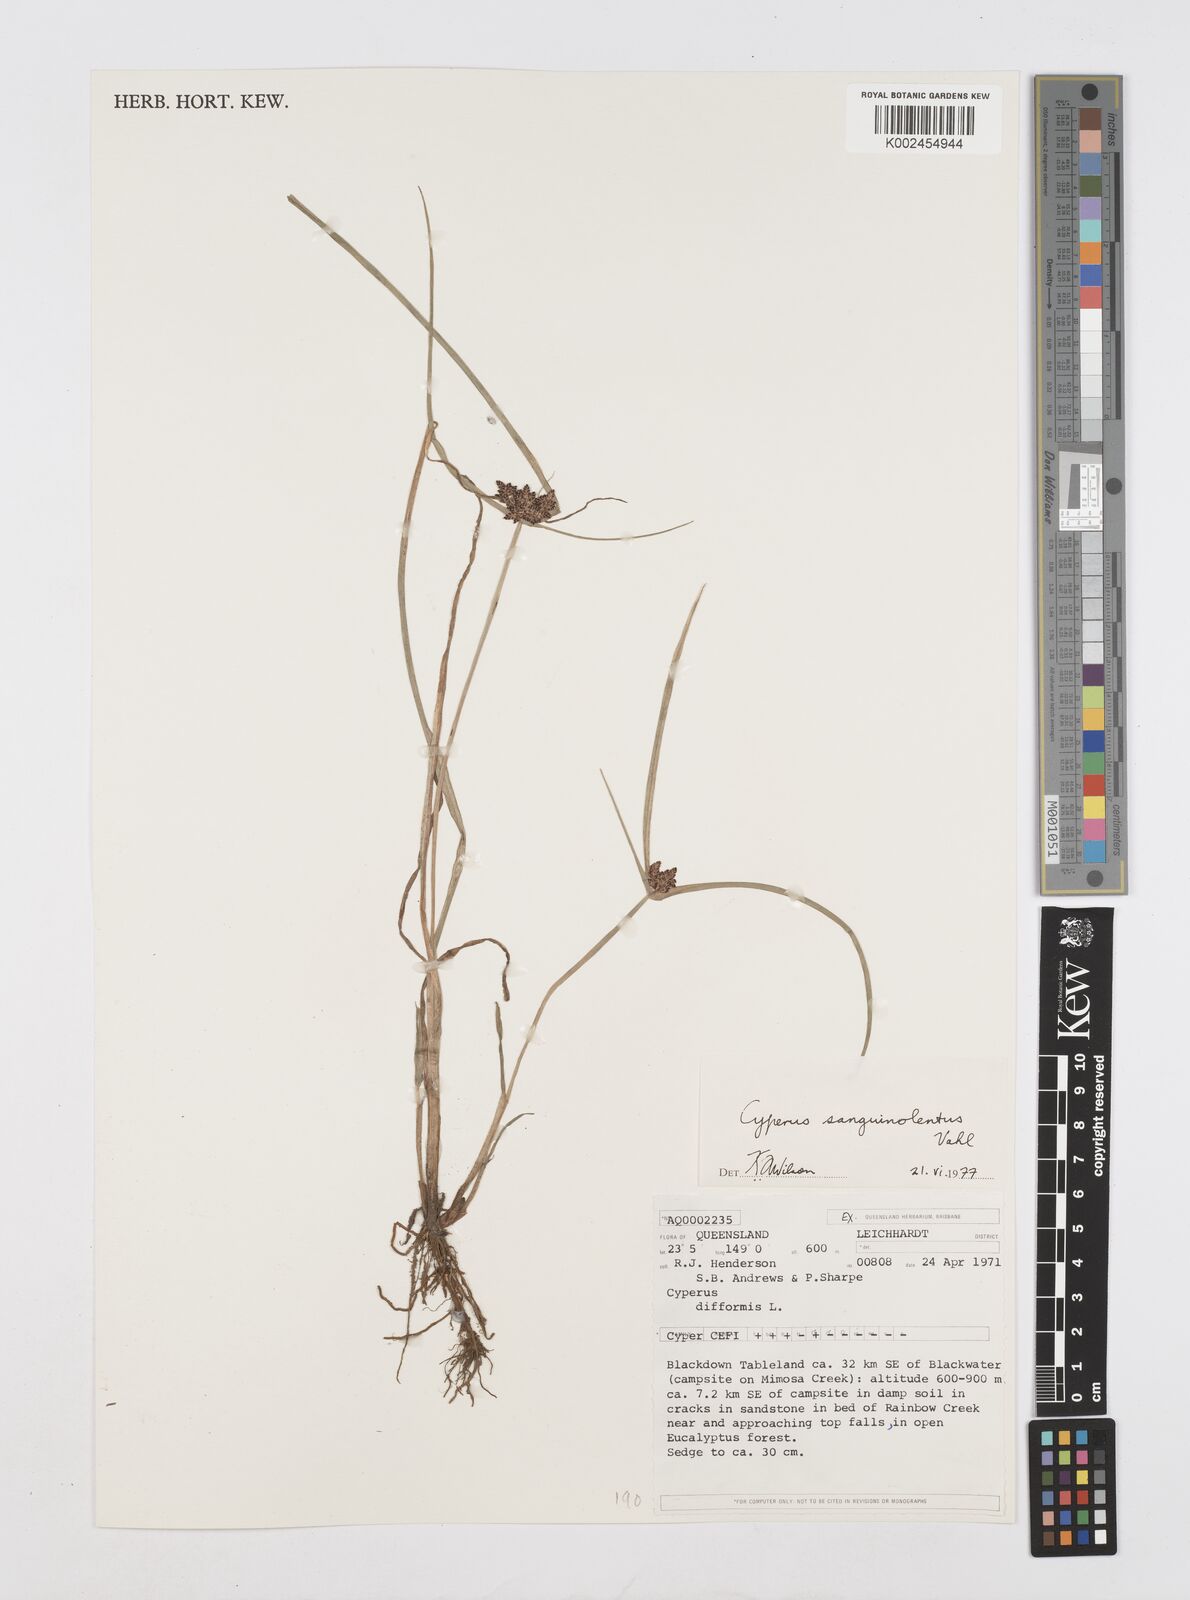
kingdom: Plantae
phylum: Tracheophyta
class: Liliopsida
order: Poales
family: Cyperaceae
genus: Cyperus
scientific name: Cyperus sanguinolentus
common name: Purpleglume flatsedge
